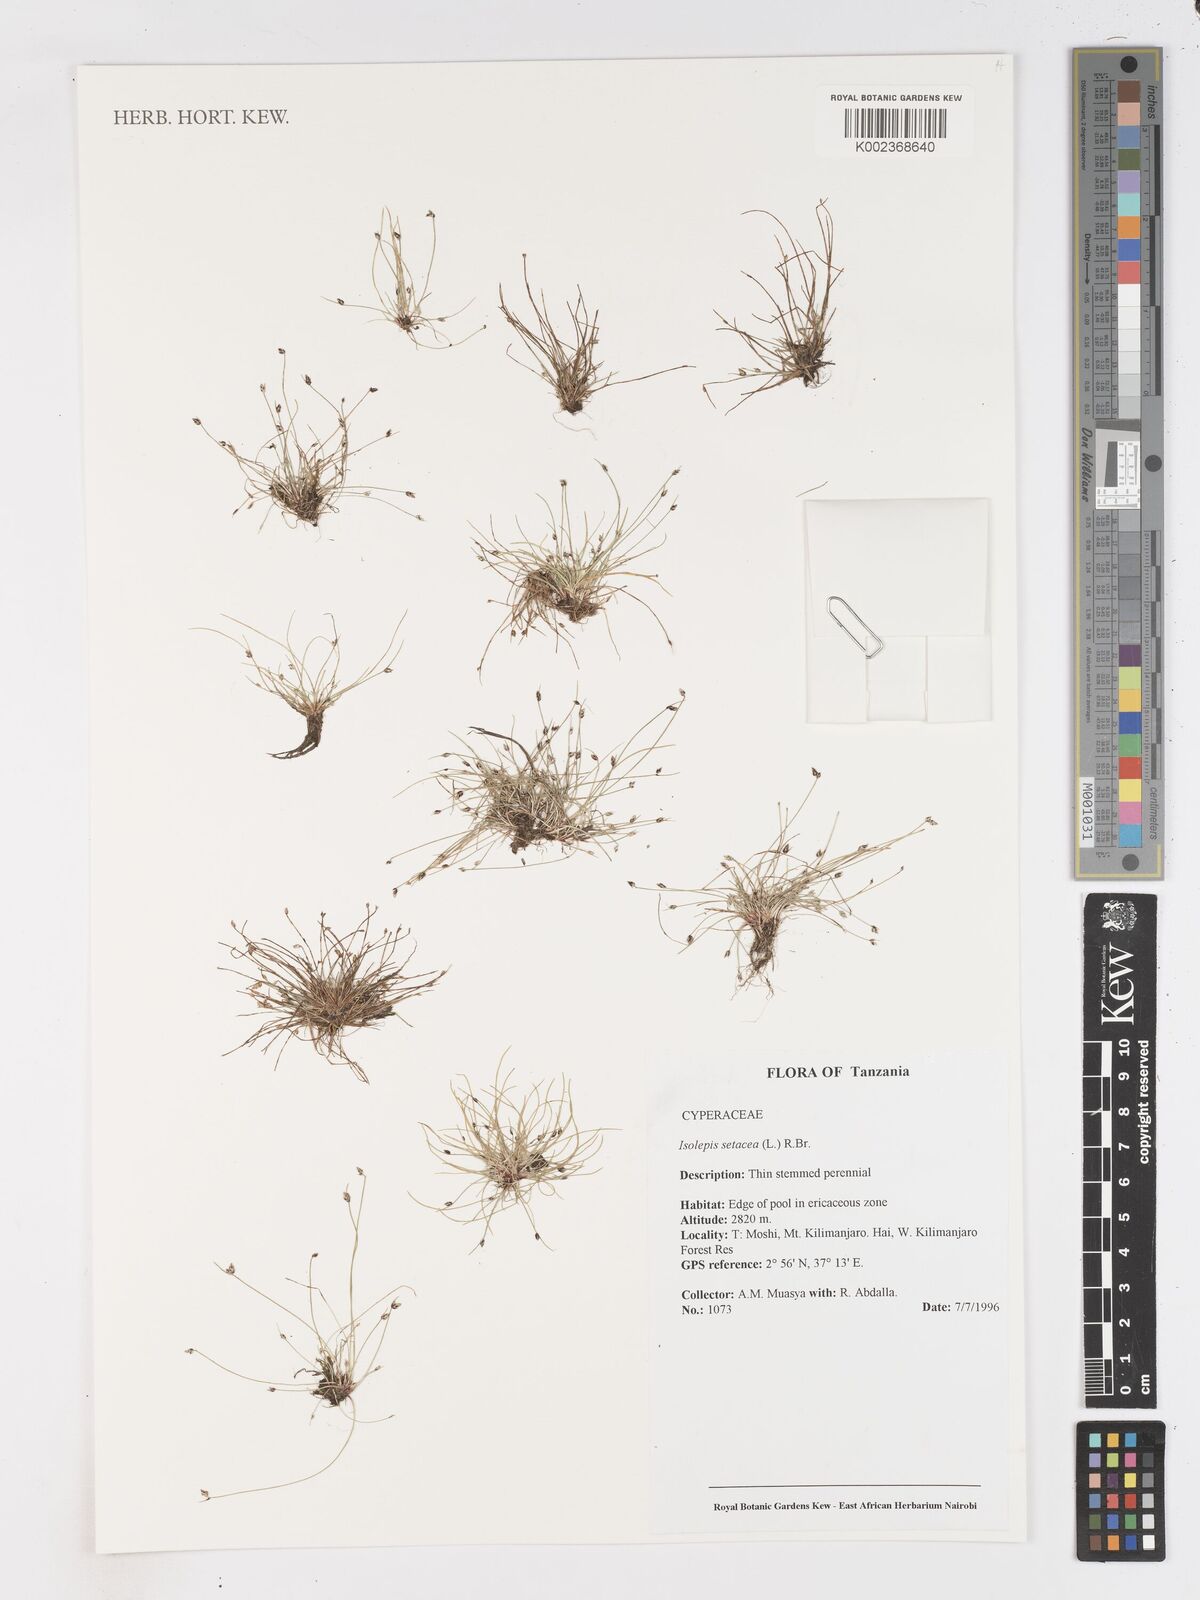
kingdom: Plantae
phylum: Tracheophyta
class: Liliopsida
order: Poales
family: Cyperaceae
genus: Isolepis
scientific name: Isolepis setacea
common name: Bristle club-rush
